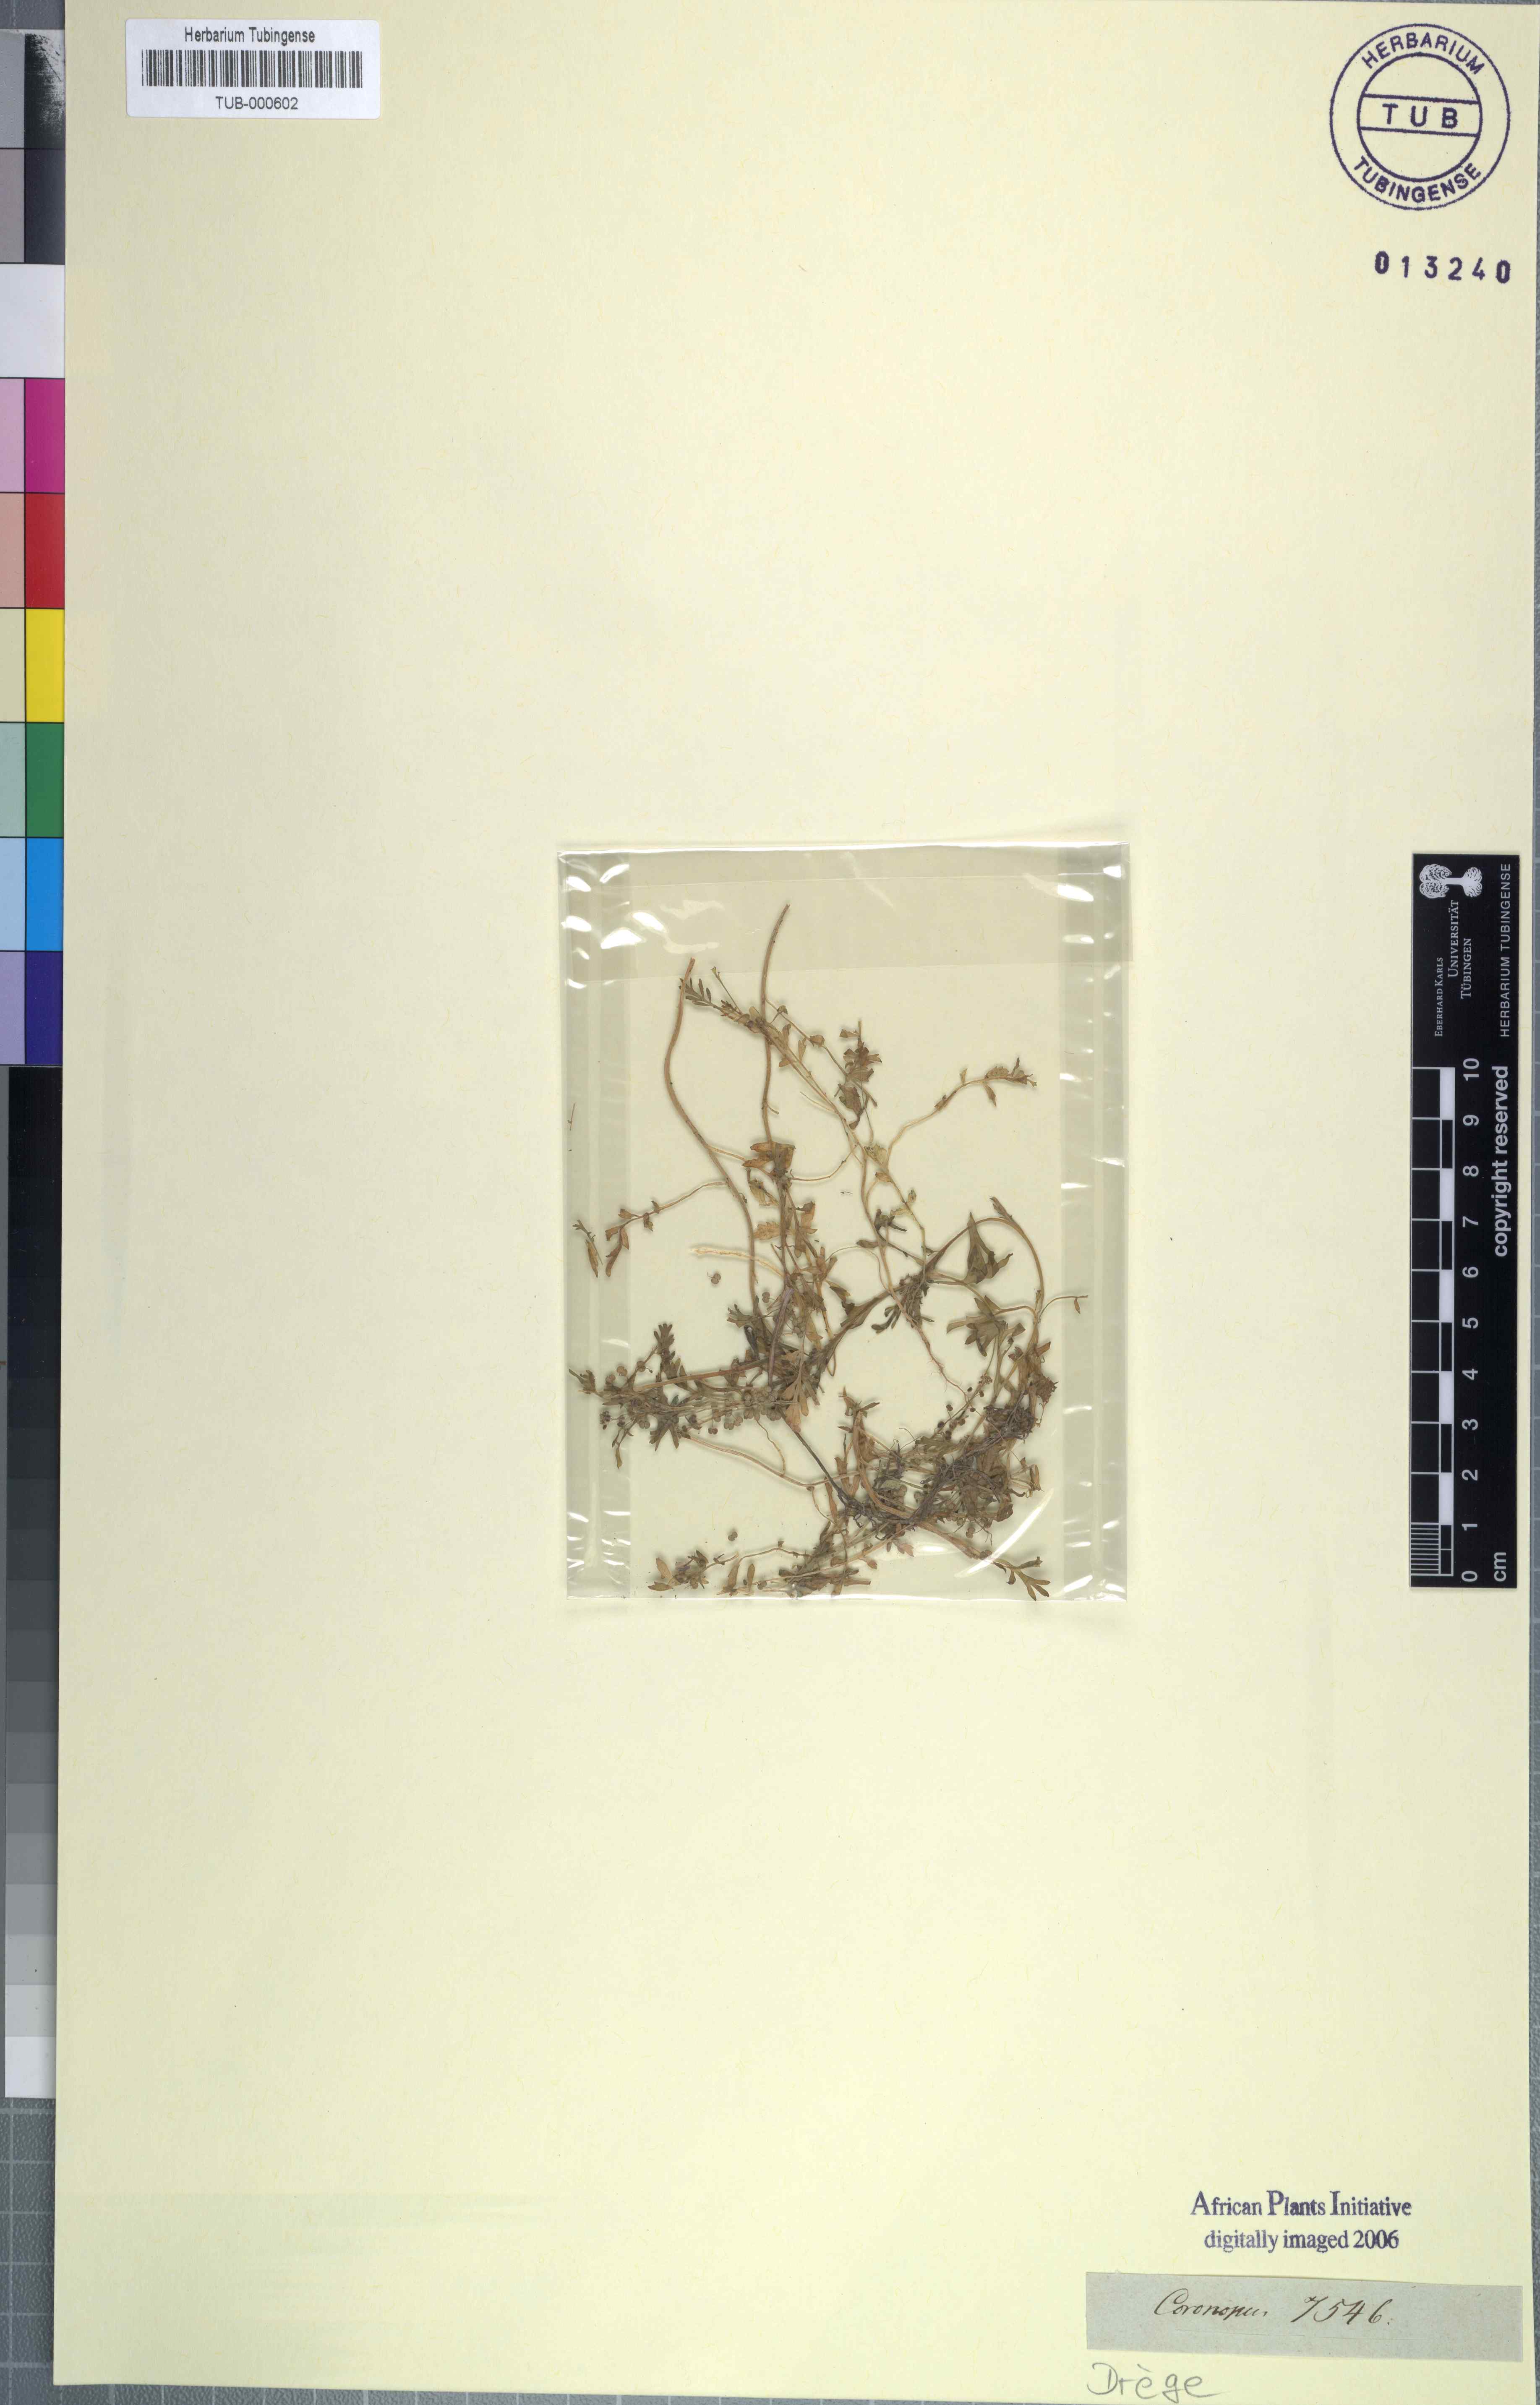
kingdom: Plantae
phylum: Tracheophyta
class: Magnoliopsida
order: Brassicales
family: Brassicaceae
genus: Coronopus
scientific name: Coronopus
